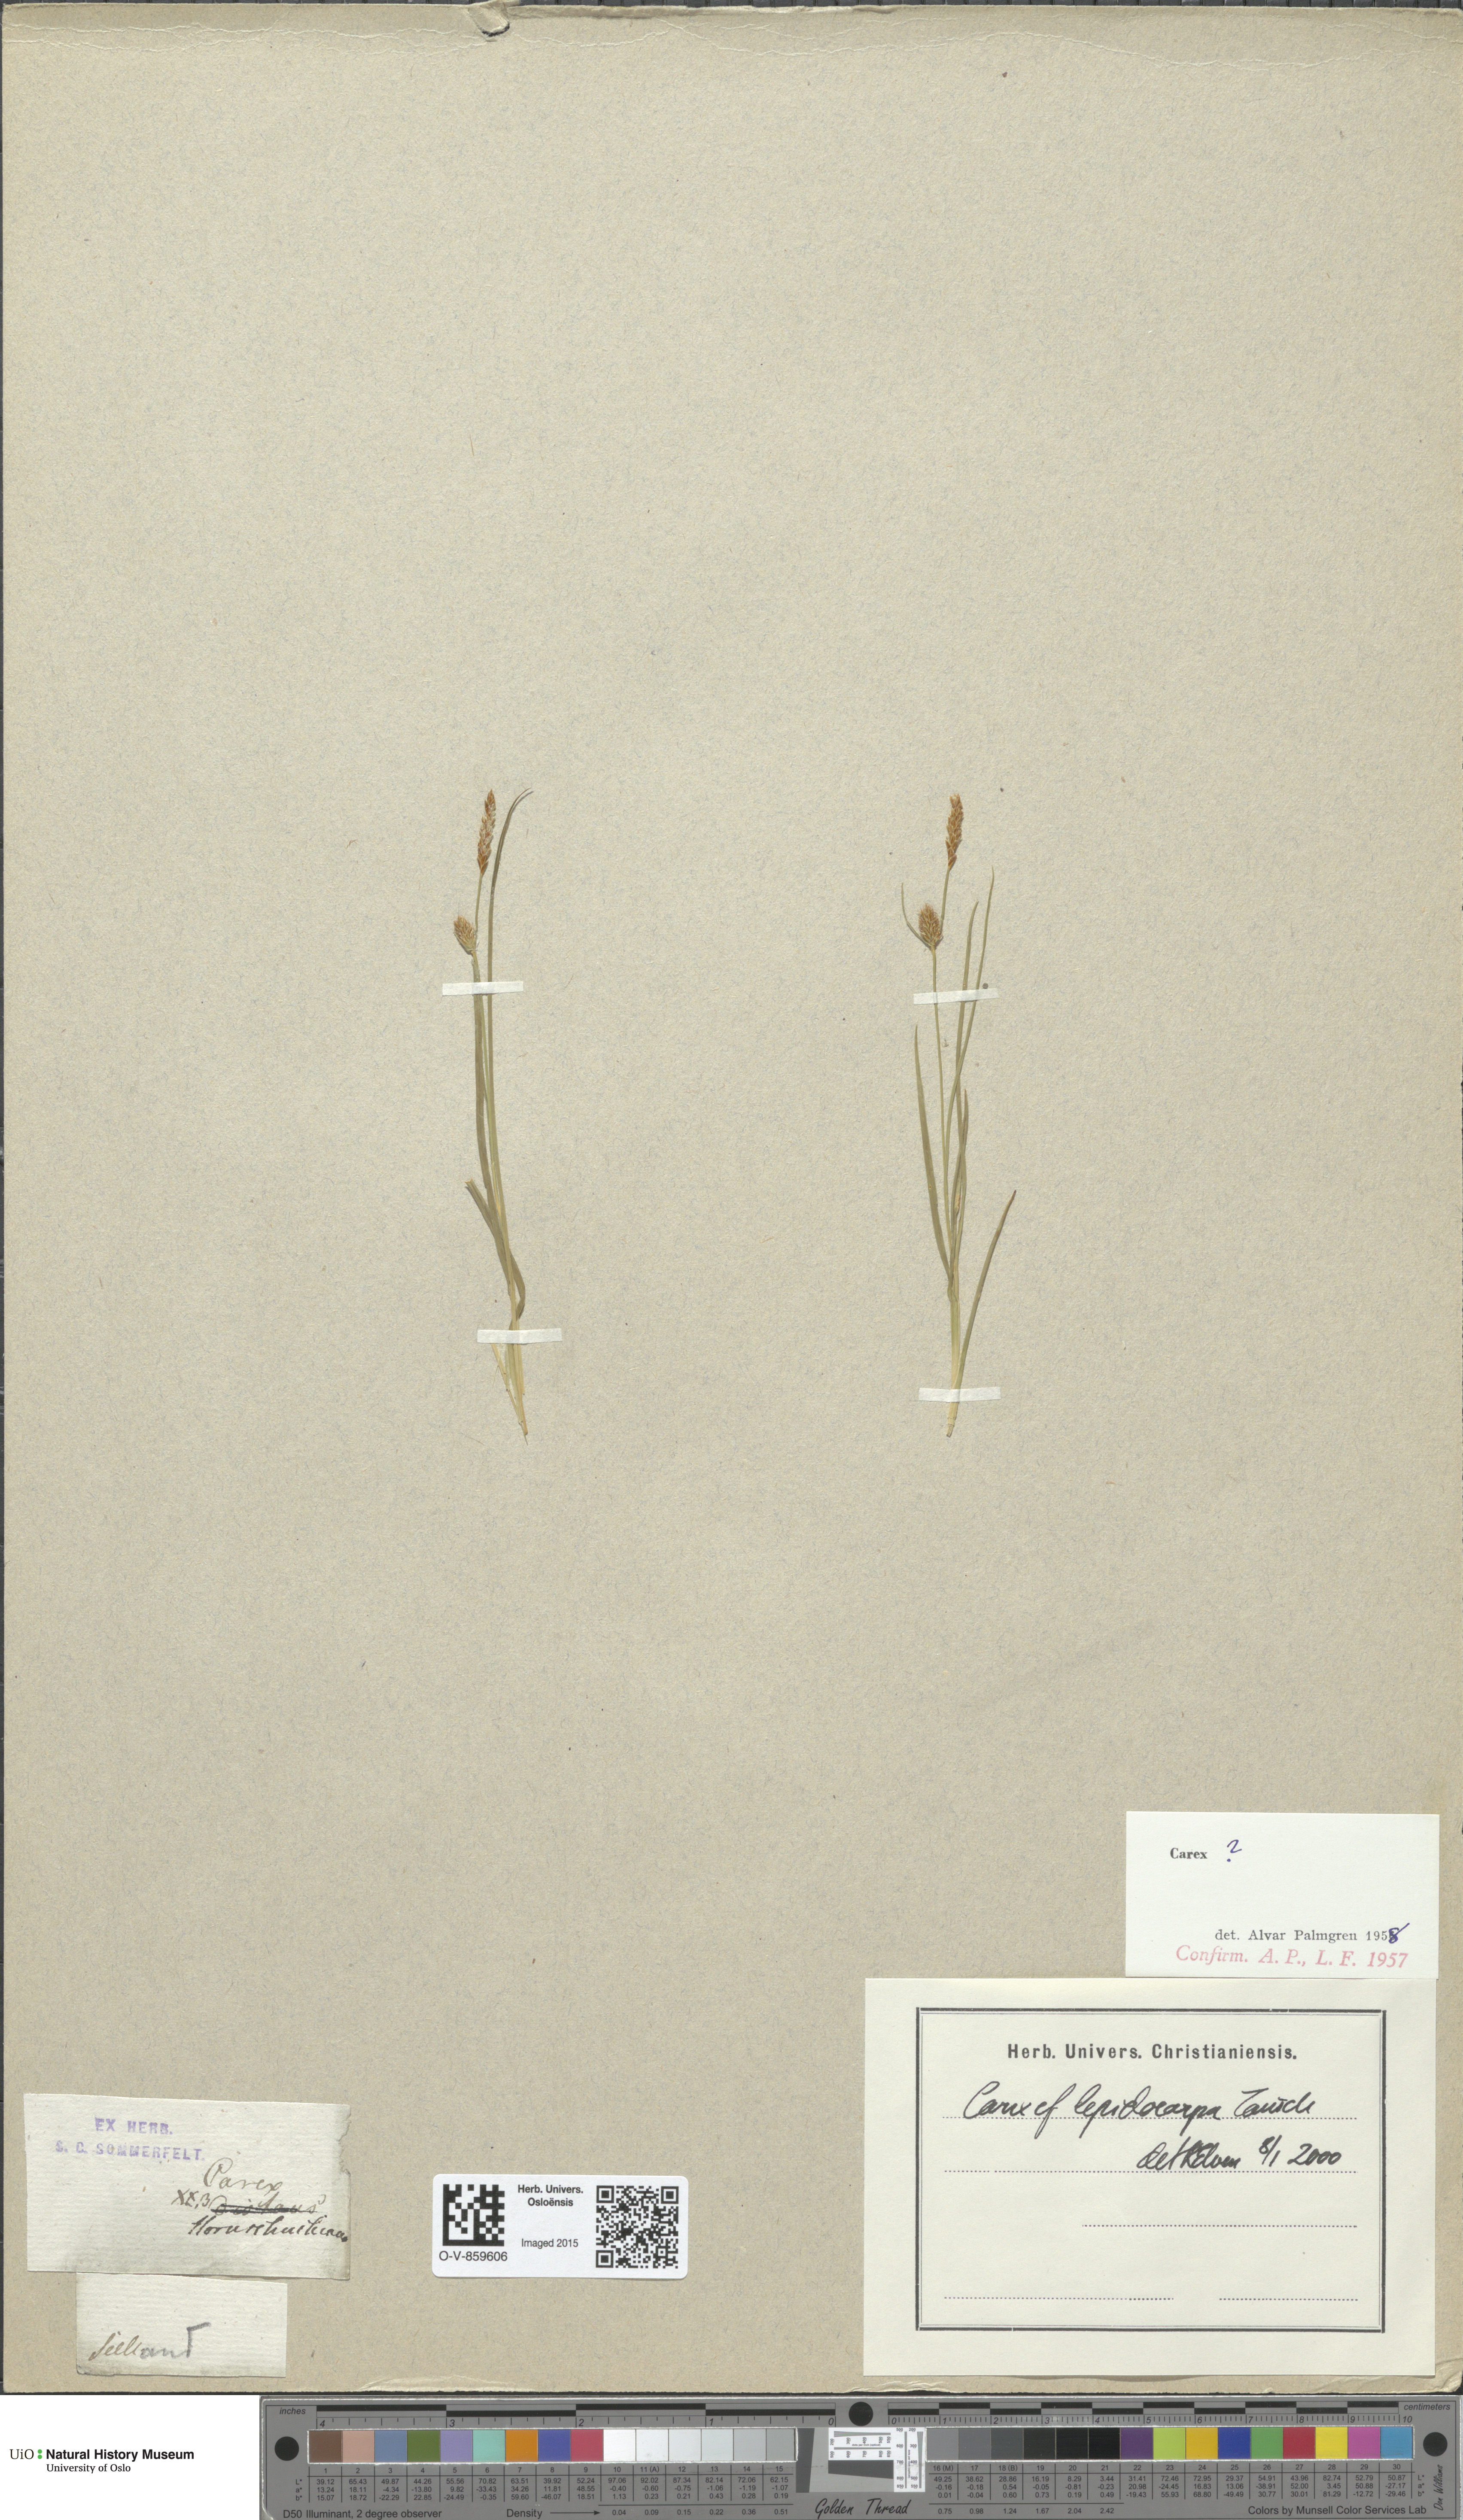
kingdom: Plantae
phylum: Tracheophyta
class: Liliopsida
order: Poales
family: Cyperaceae
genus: Carex
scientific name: Carex lepidocarpa
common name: Long-stalked yellow-sedge
